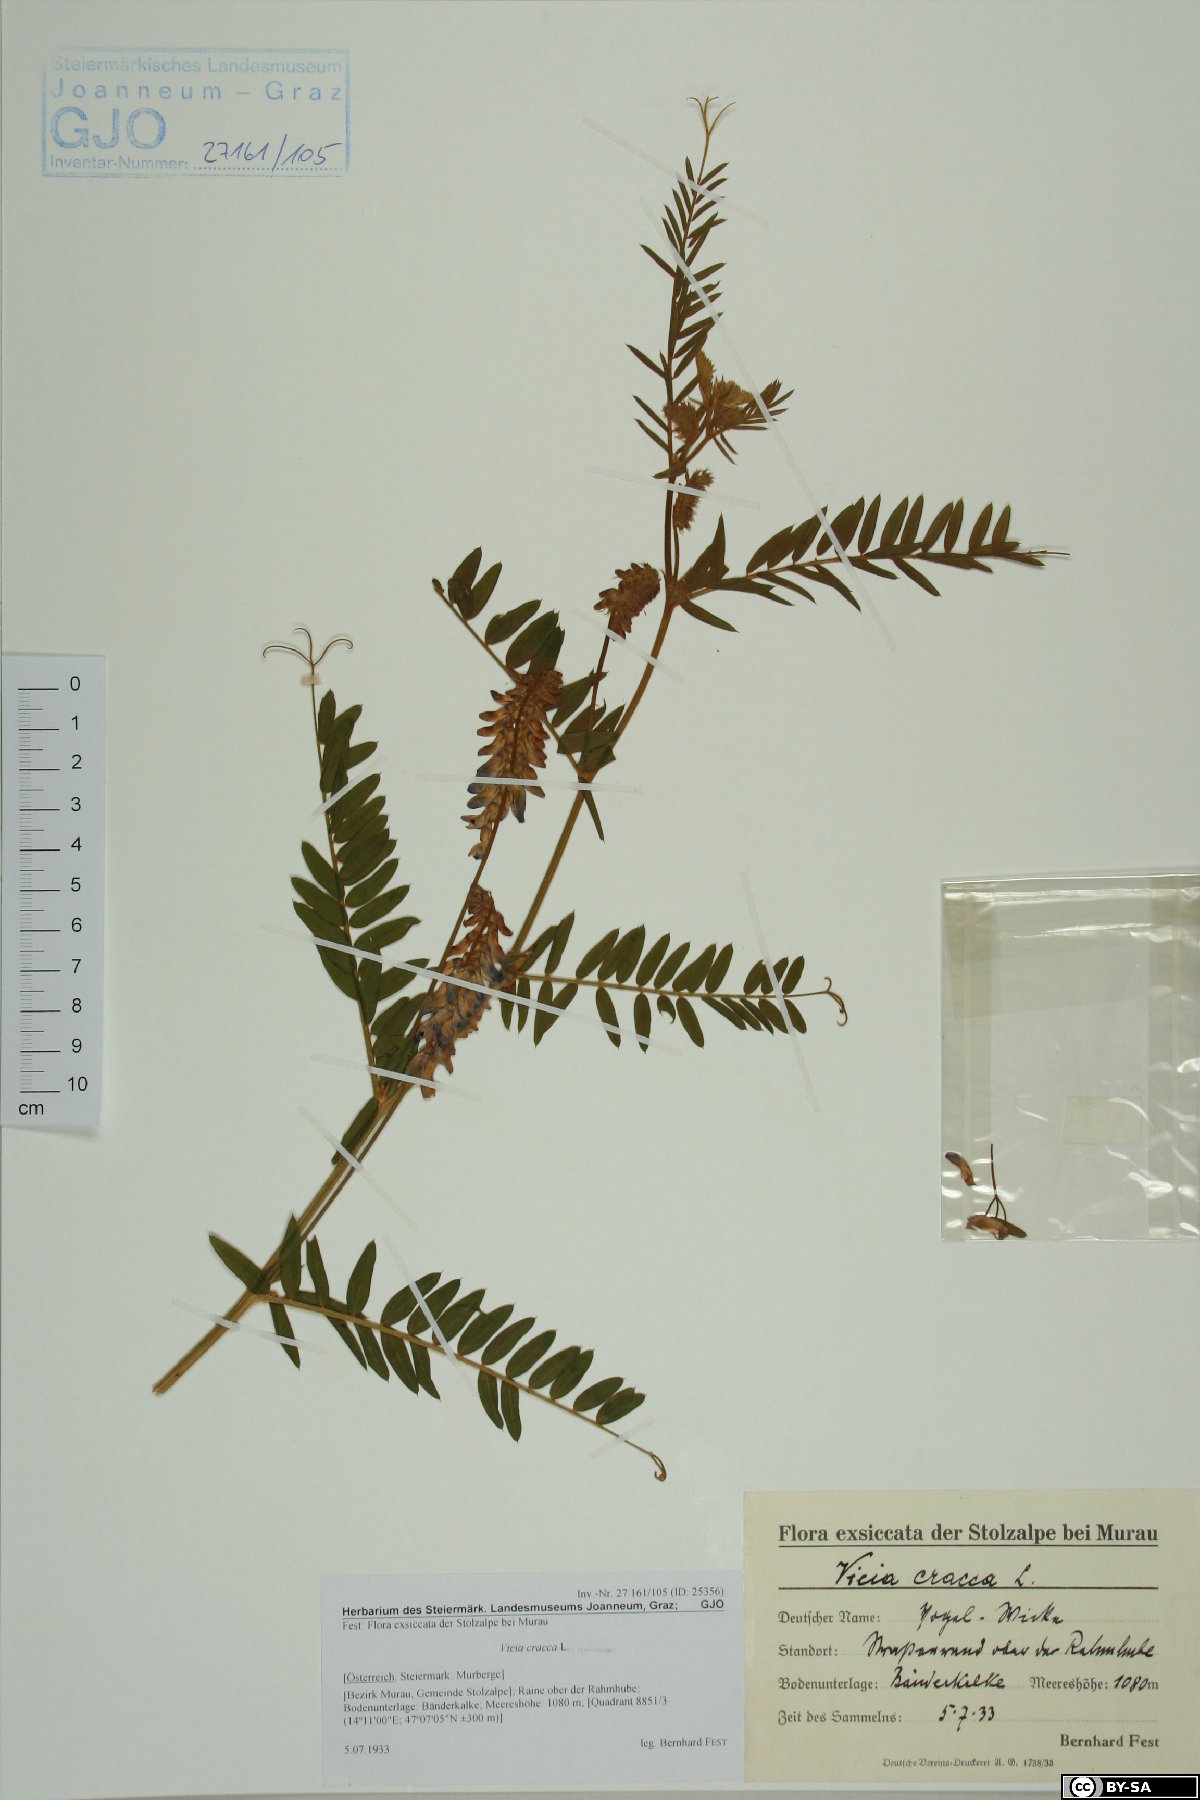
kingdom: Plantae
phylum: Tracheophyta
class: Magnoliopsida
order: Fabales
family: Fabaceae
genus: Vicia
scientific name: Vicia cracca
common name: Bird vetch
